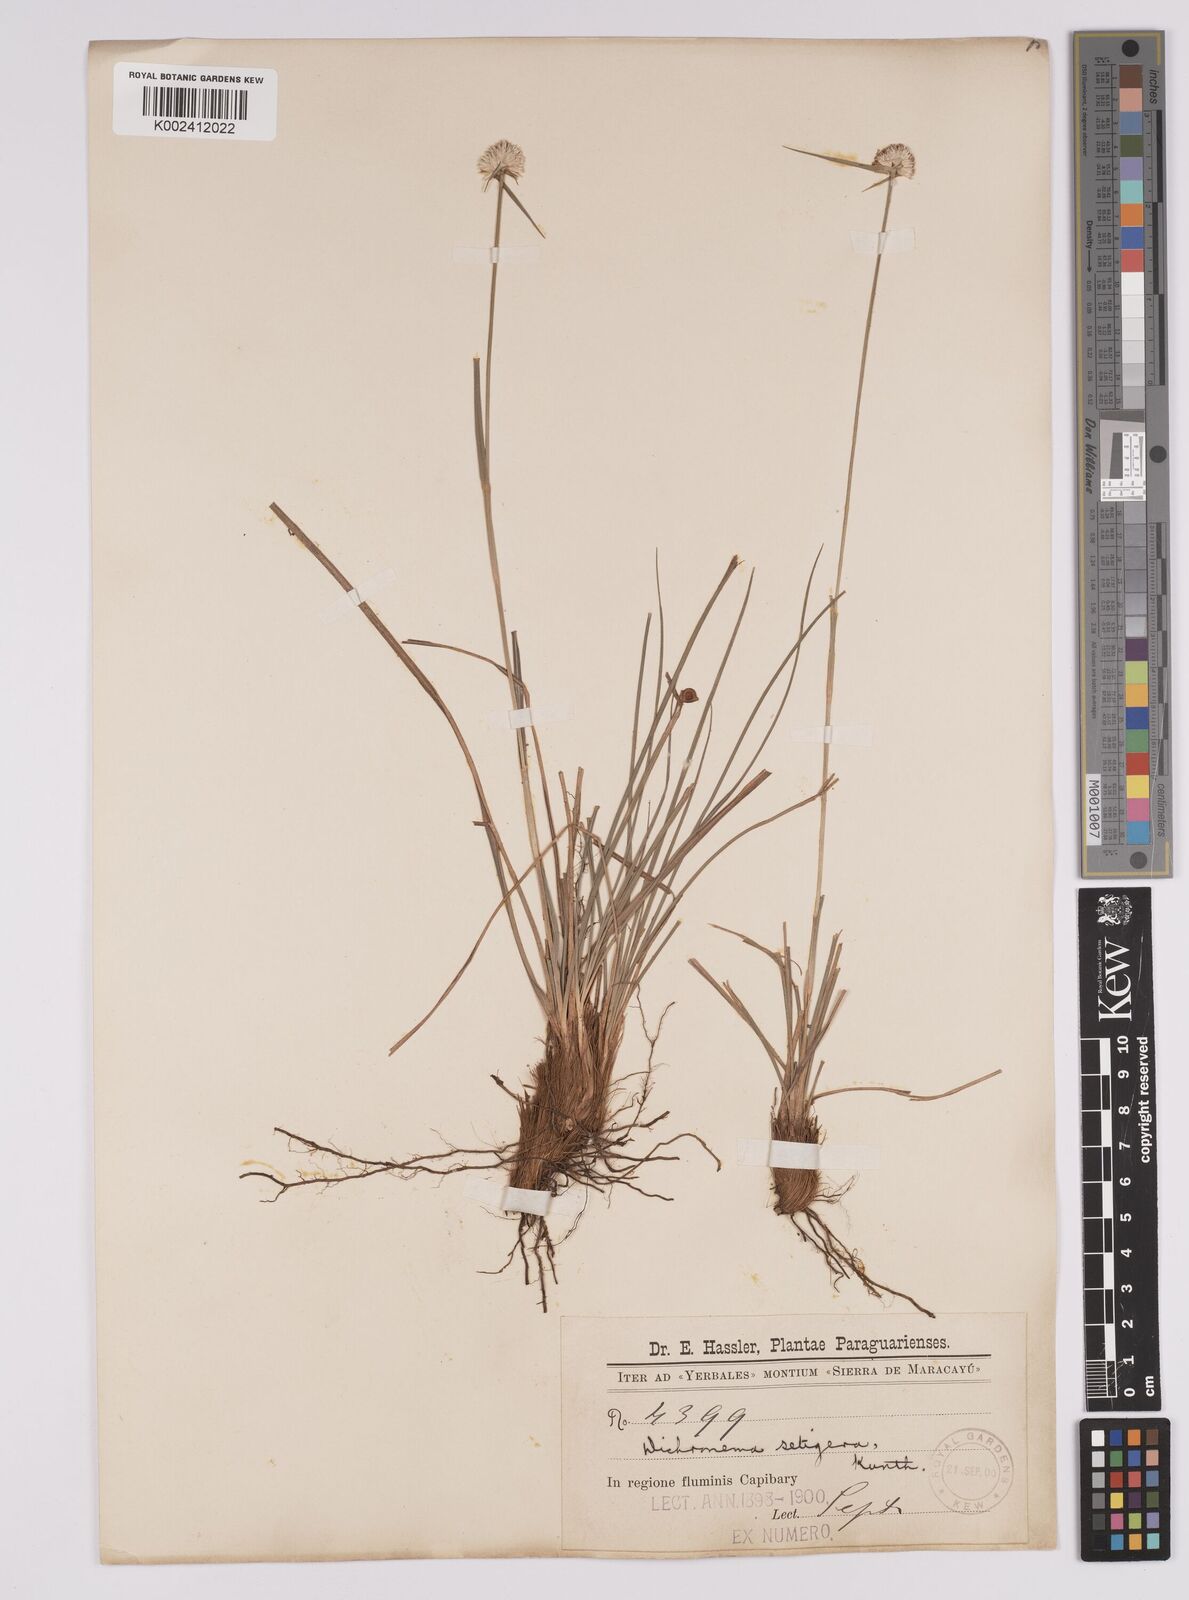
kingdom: Plantae
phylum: Tracheophyta
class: Liliopsida
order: Poales
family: Cyperaceae
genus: Rhynchospora
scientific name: Rhynchospora setigera
